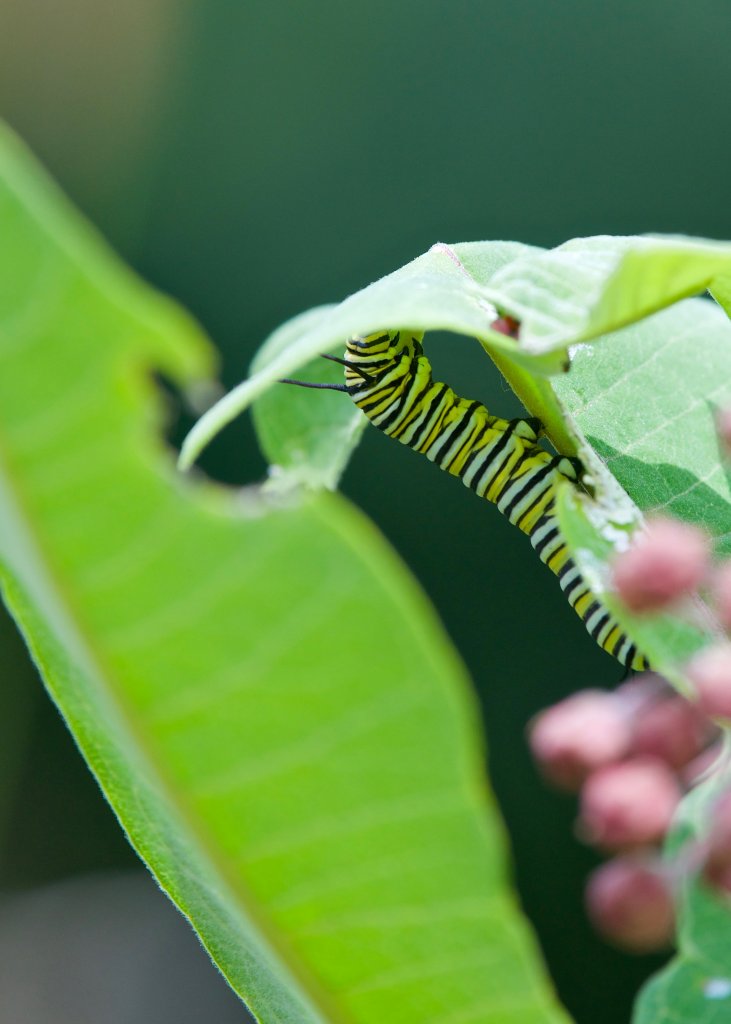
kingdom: Animalia
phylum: Arthropoda
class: Insecta
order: Lepidoptera
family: Nymphalidae
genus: Danaus
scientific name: Danaus plexippus
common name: Monarch
